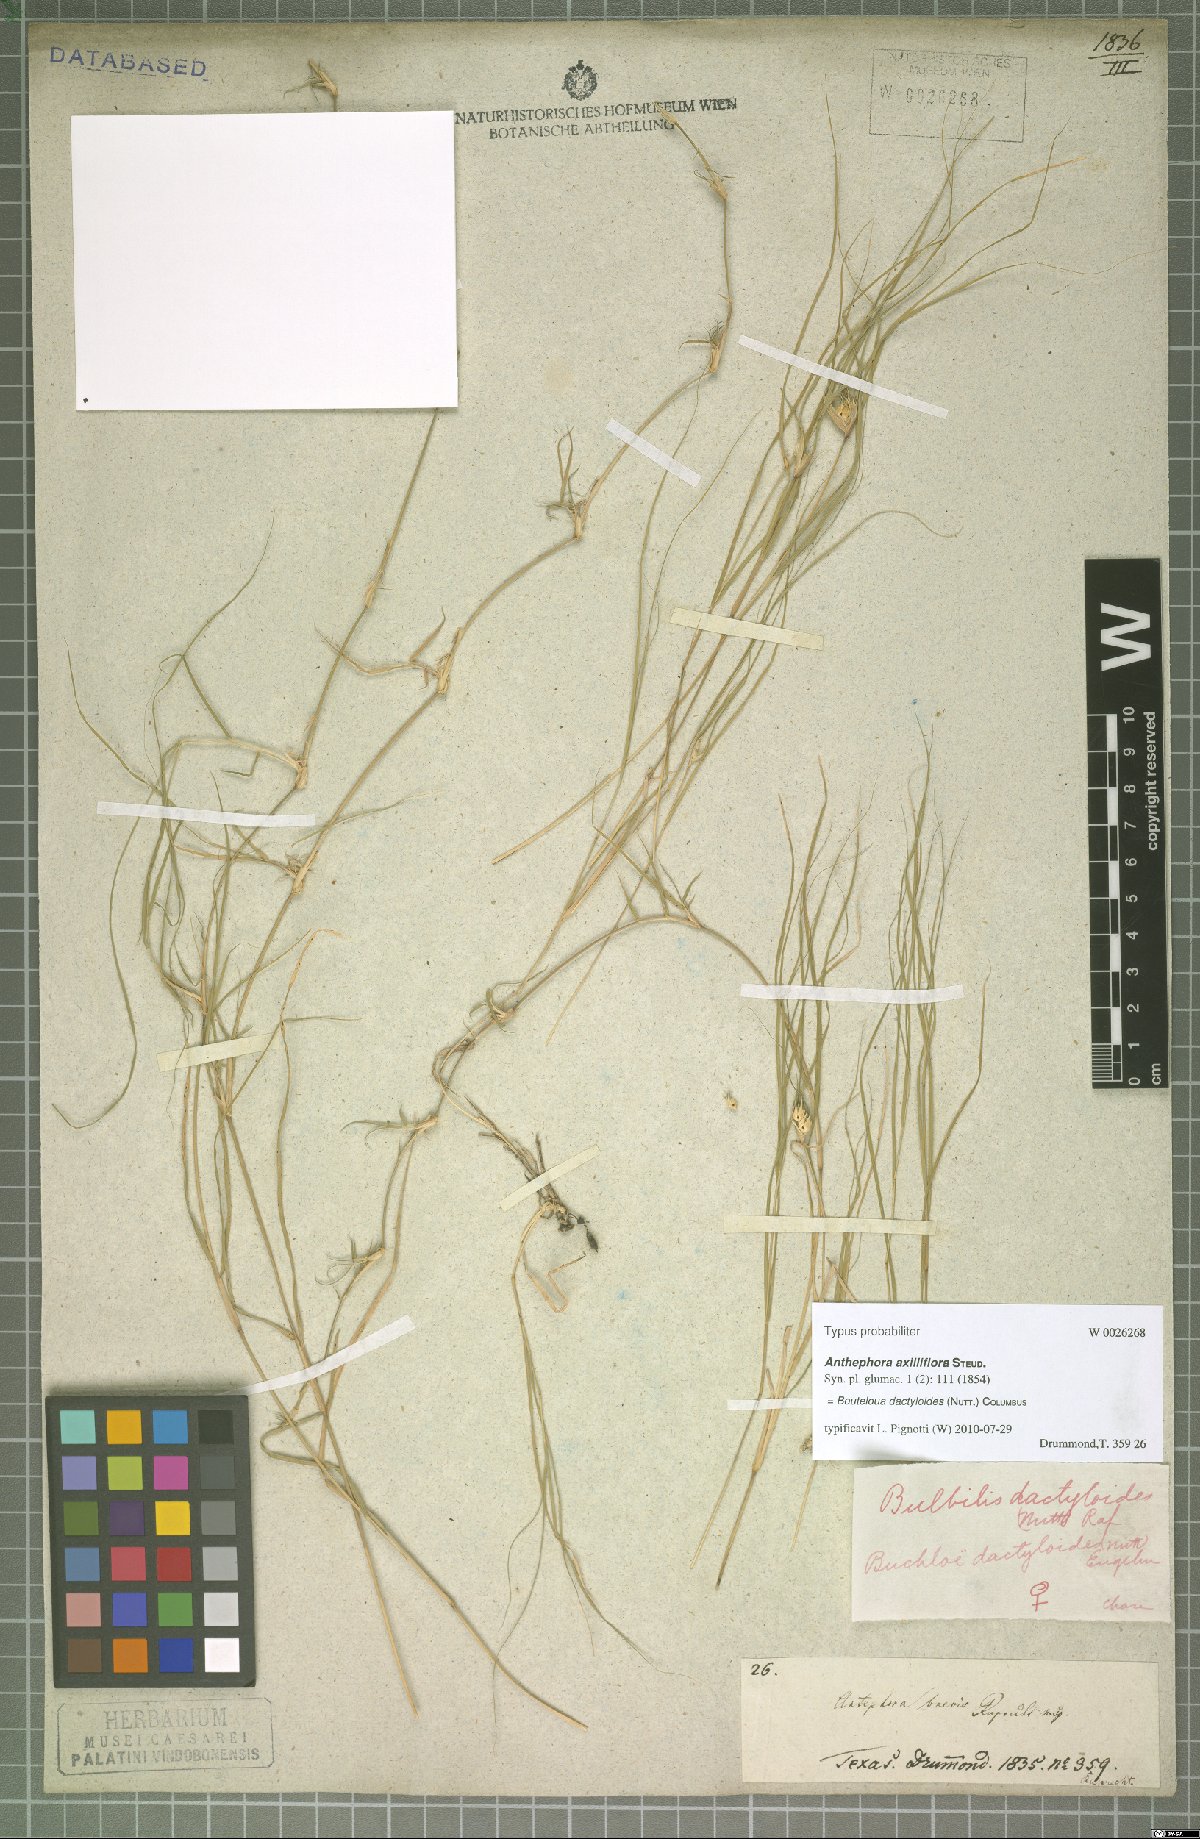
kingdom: Plantae
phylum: Tracheophyta
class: Liliopsida
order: Poales
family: Poaceae
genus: Bouteloua
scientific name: Bouteloua dactyloides
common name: Buffalo grass
